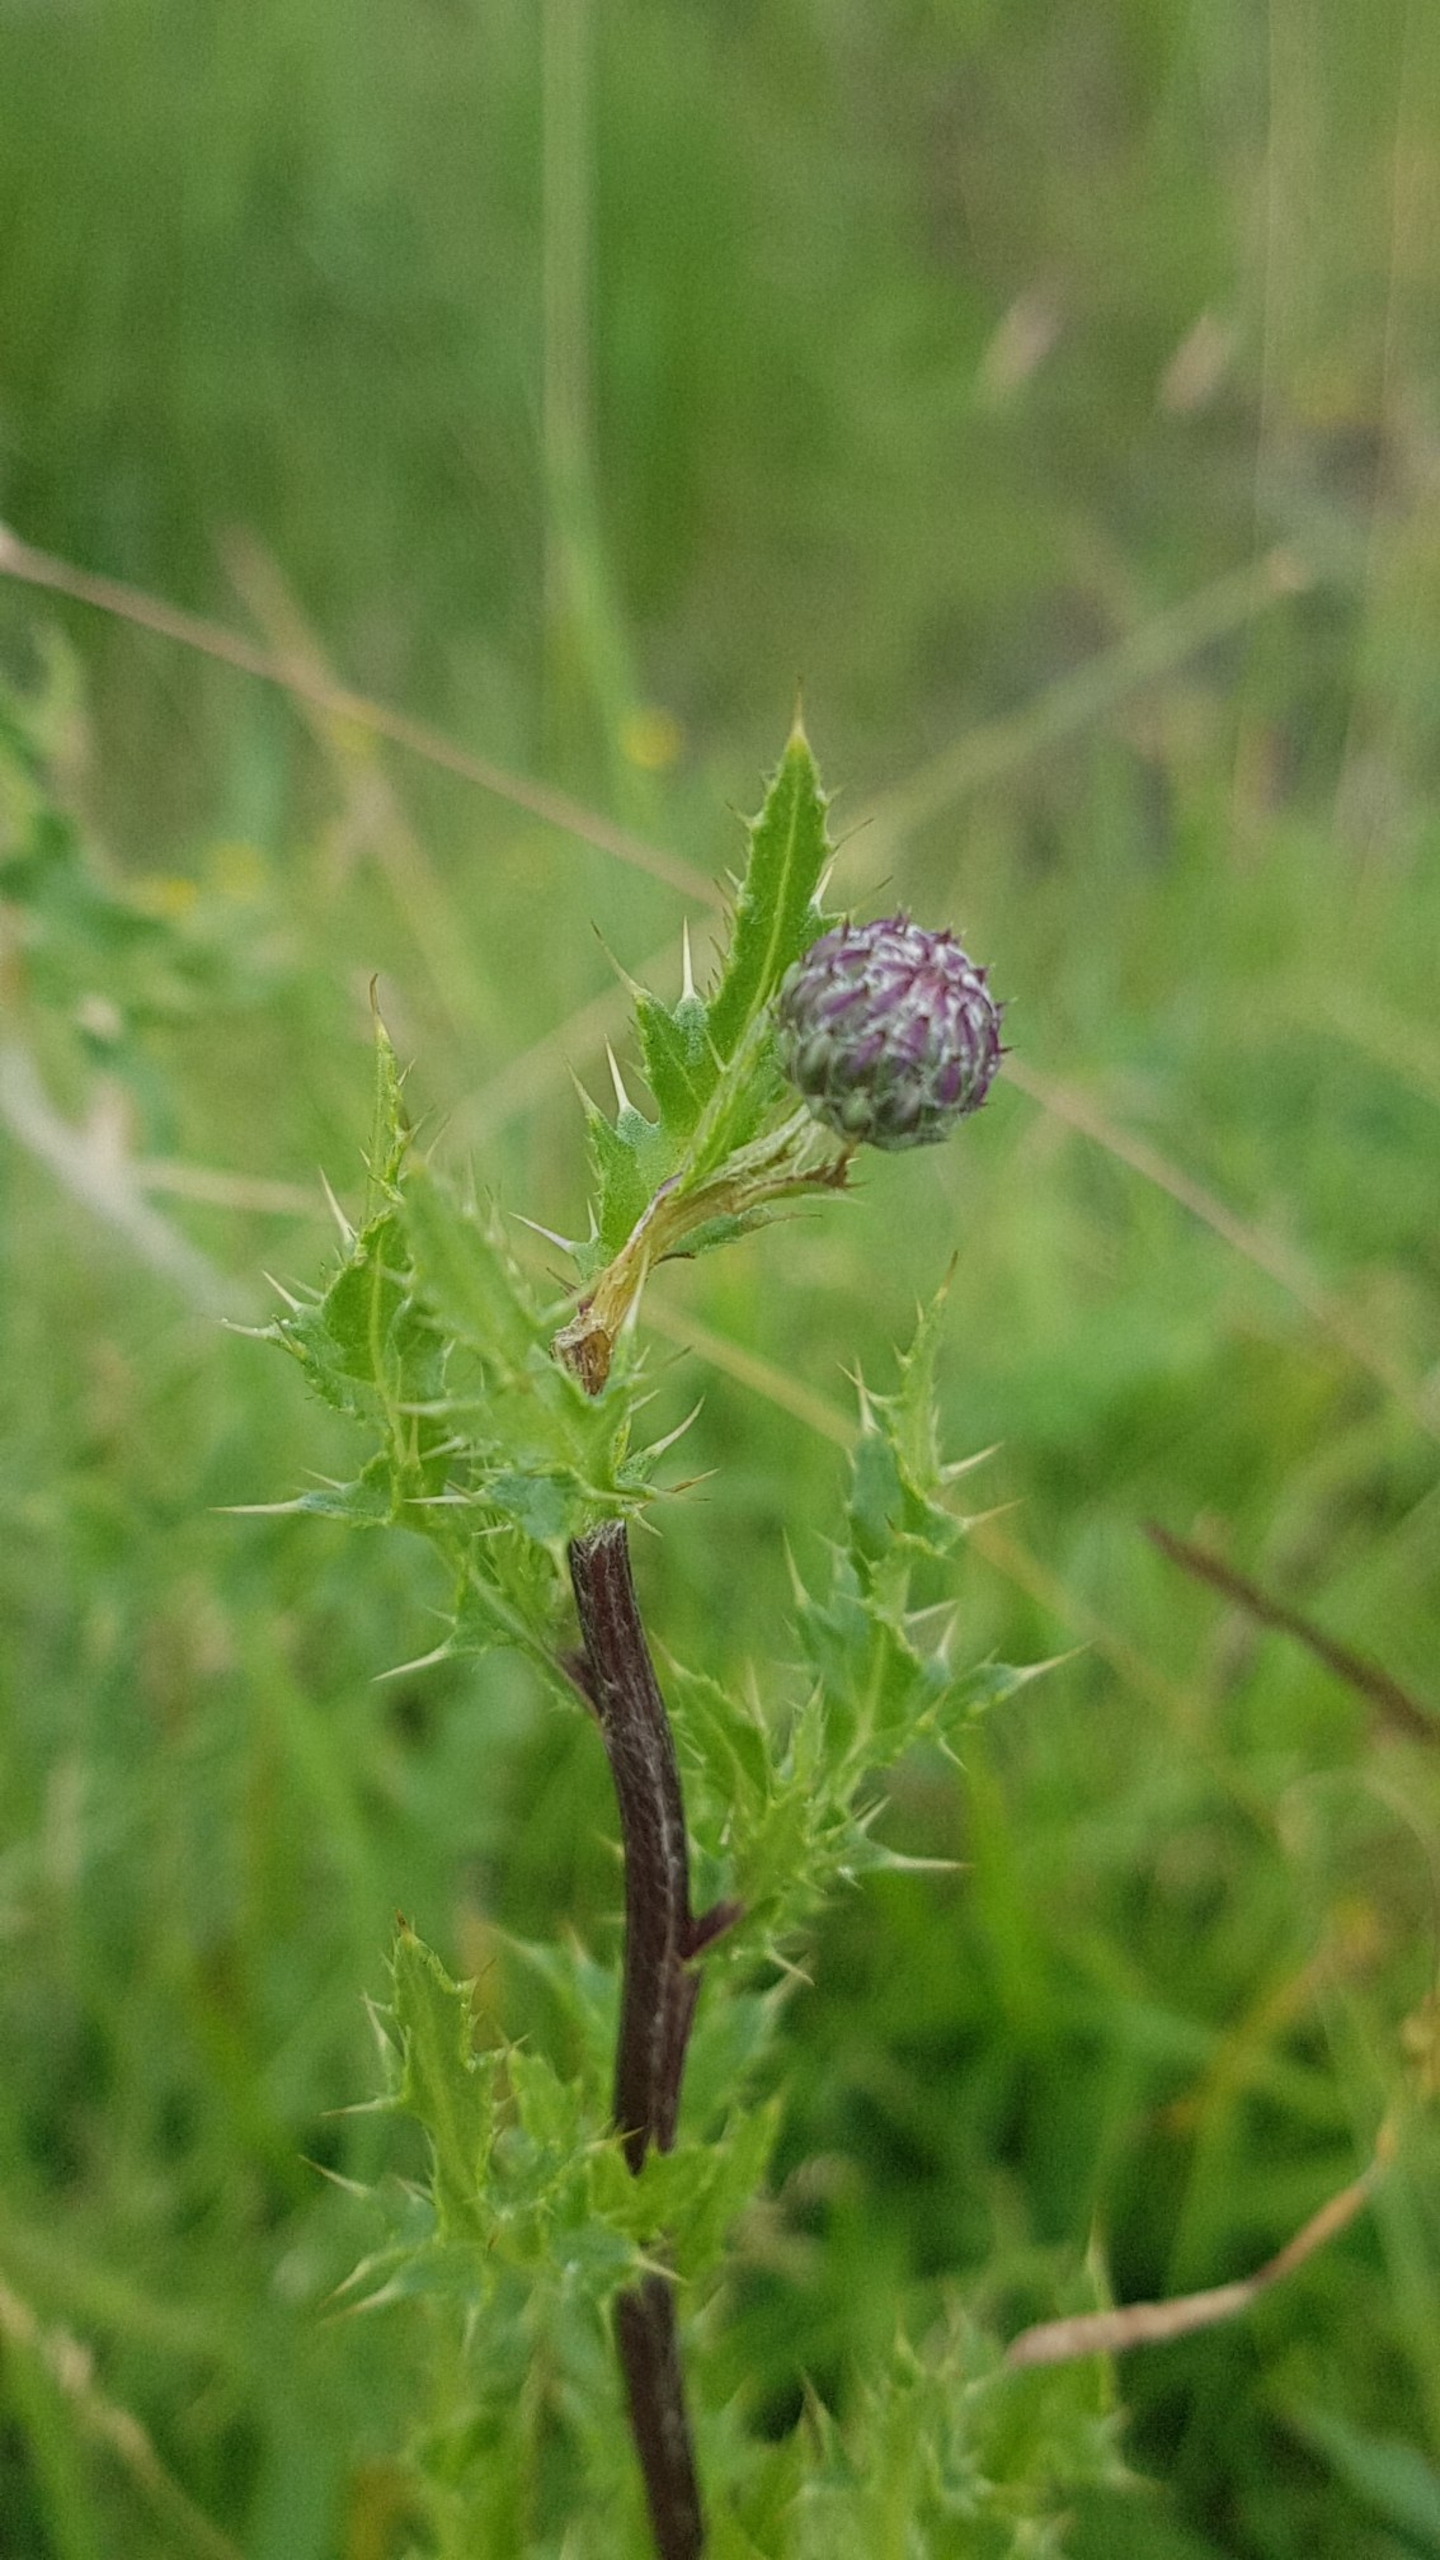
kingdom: Plantae
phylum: Tracheophyta
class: Magnoliopsida
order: Asterales
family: Asteraceae
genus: Cirsium
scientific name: Cirsium arvense
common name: Ager-tidsel
